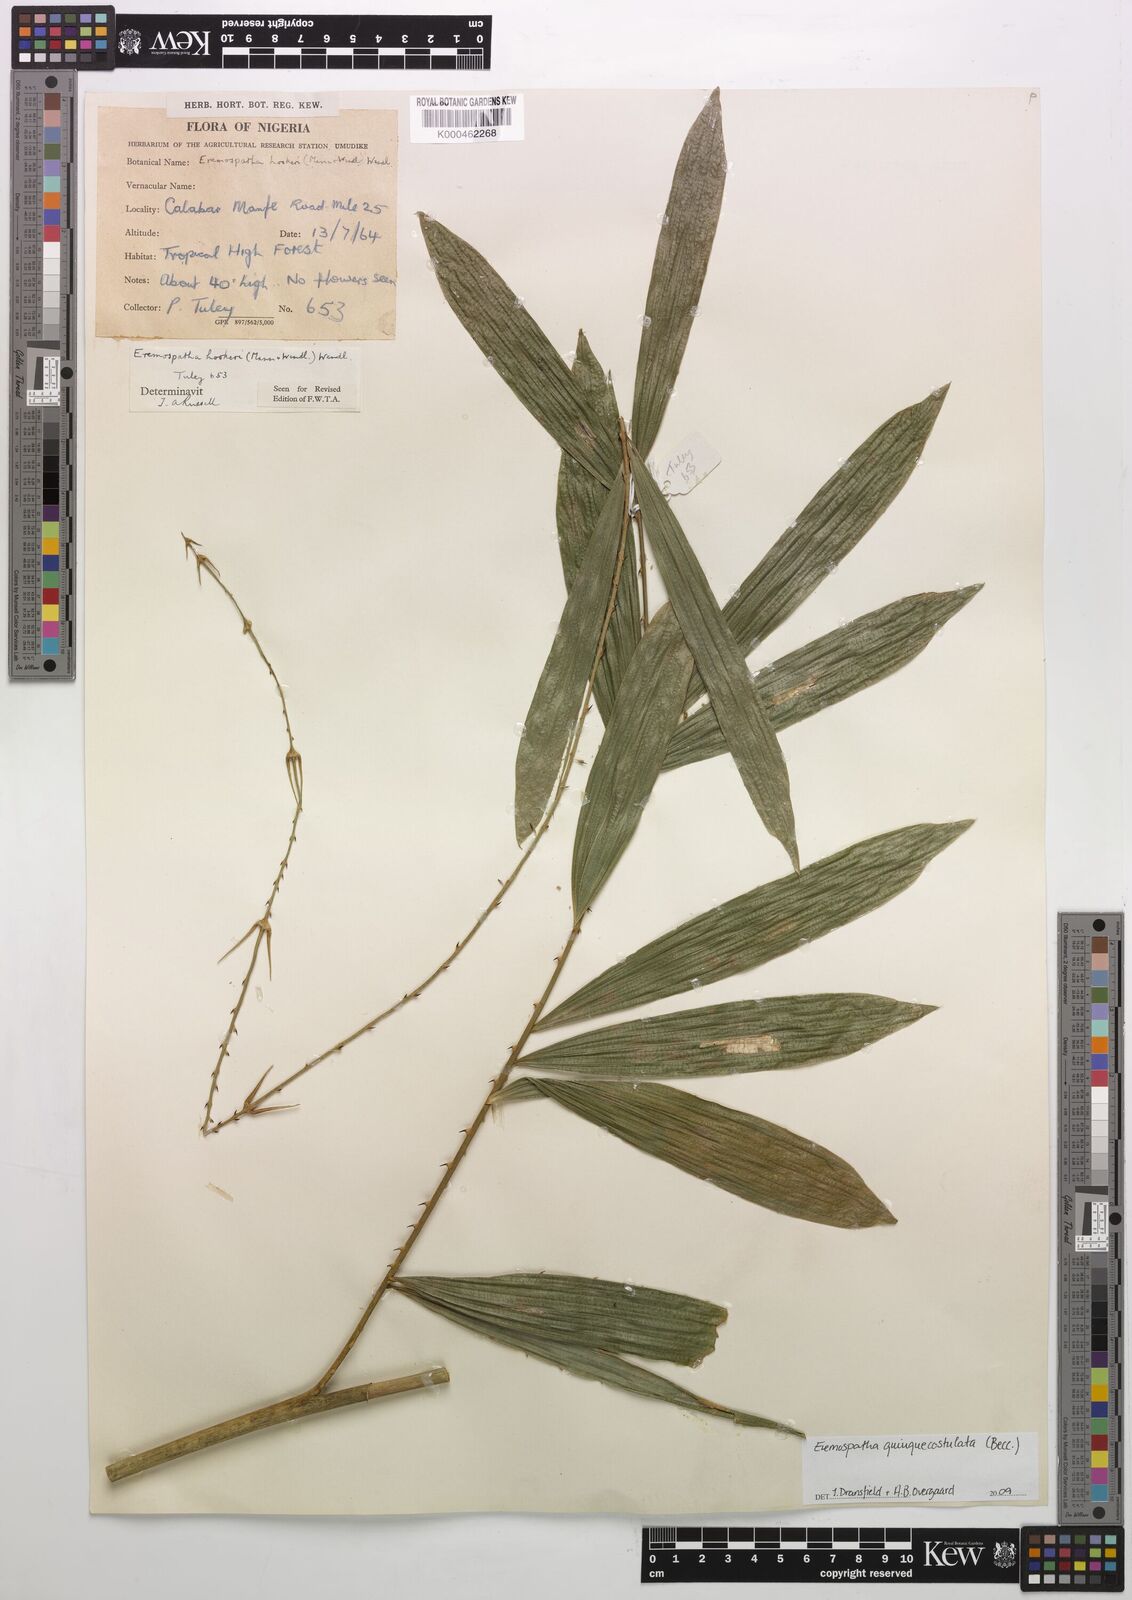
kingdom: Plantae
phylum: Tracheophyta
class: Liliopsida
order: Arecales
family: Arecaceae
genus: Eremospatha
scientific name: Eremospatha hookeri
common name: Rattan
